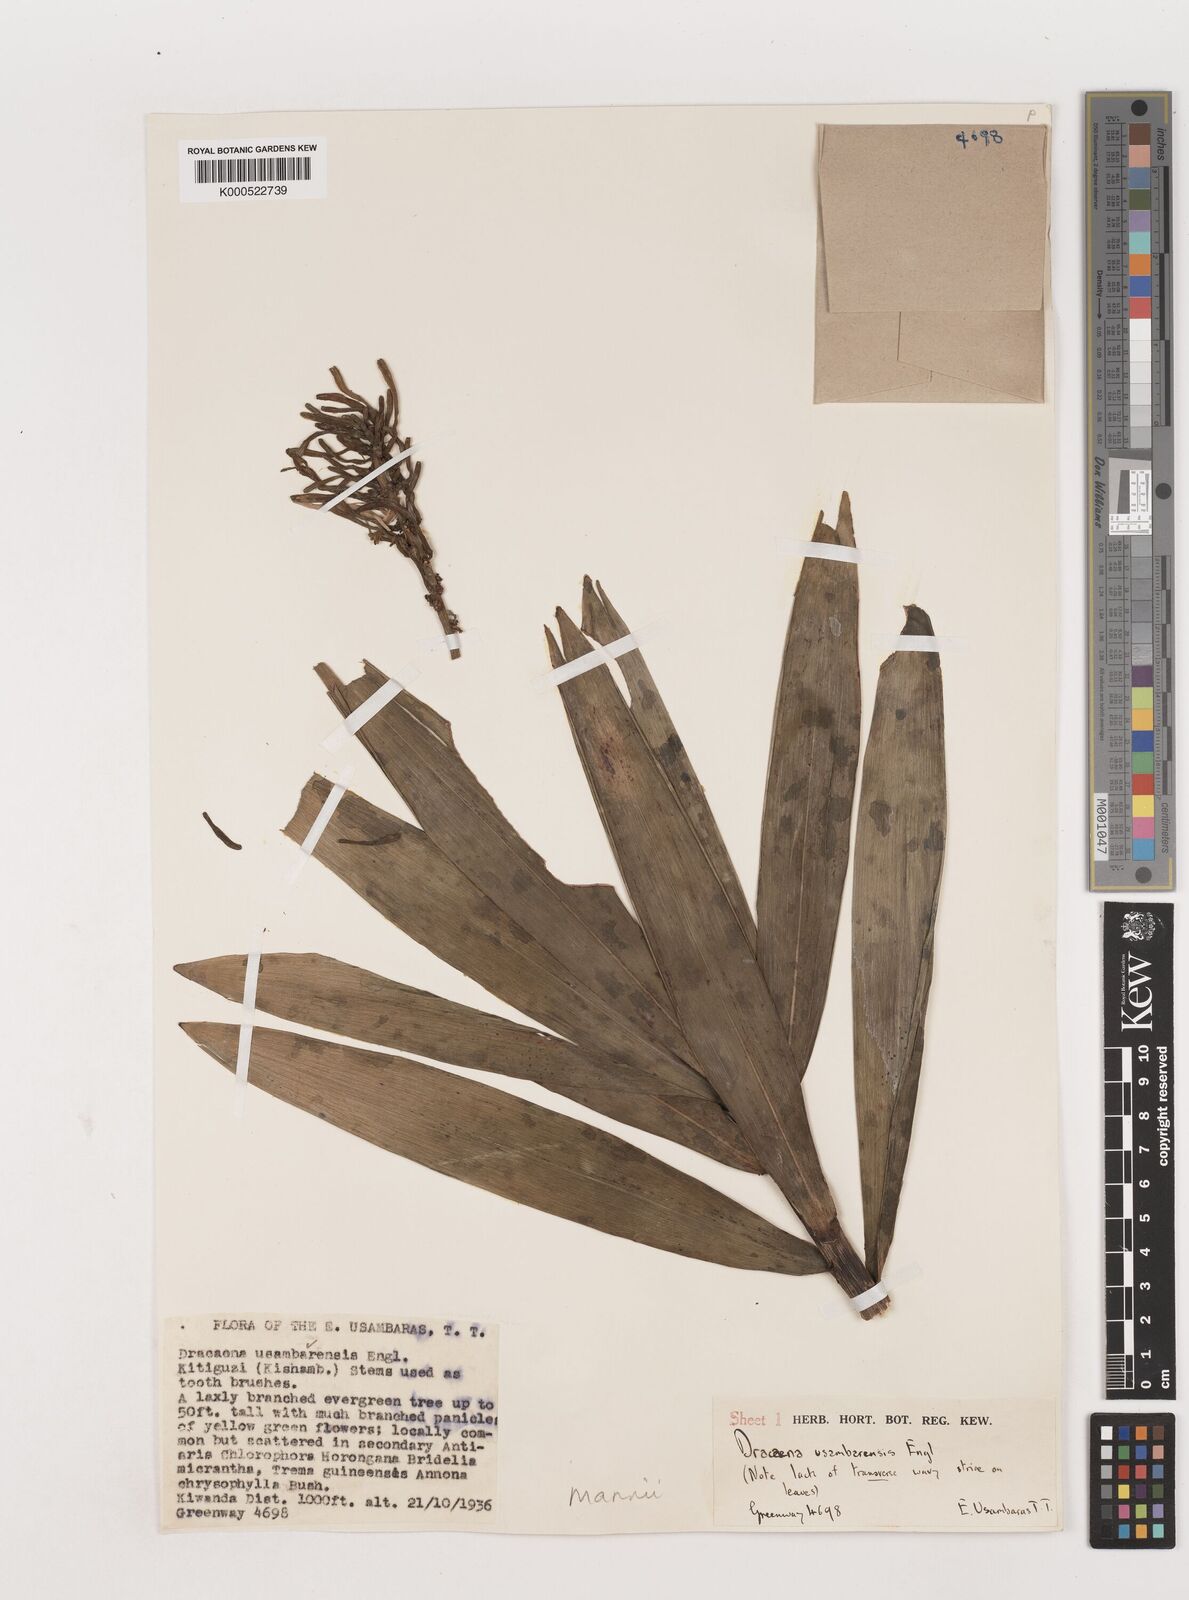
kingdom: Plantae
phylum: Tracheophyta
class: Liliopsida
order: Asparagales
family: Asparagaceae
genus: Dracaena
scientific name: Dracaena mannii
